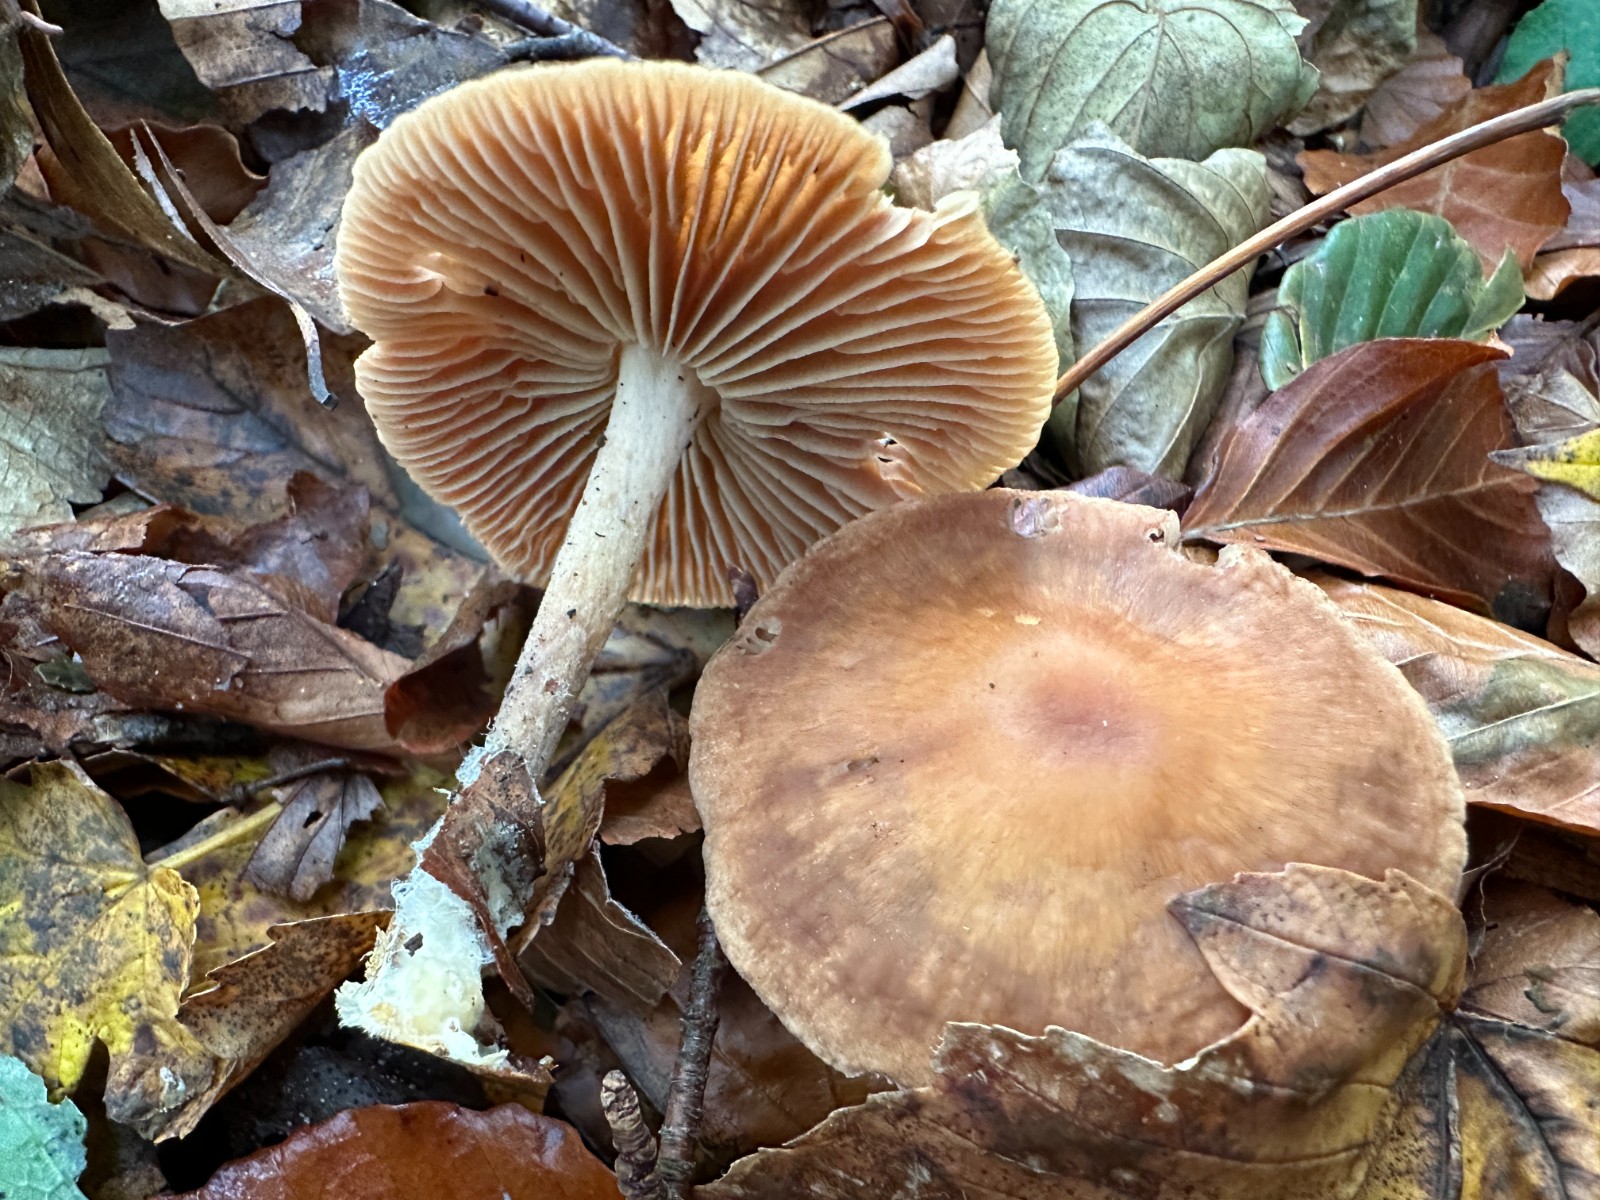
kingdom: Fungi
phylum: Basidiomycota
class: Agaricomycetes
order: Agaricales
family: Omphalotaceae
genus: Collybiopsis
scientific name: Collybiopsis peronata
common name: bestøvlet fladhat
